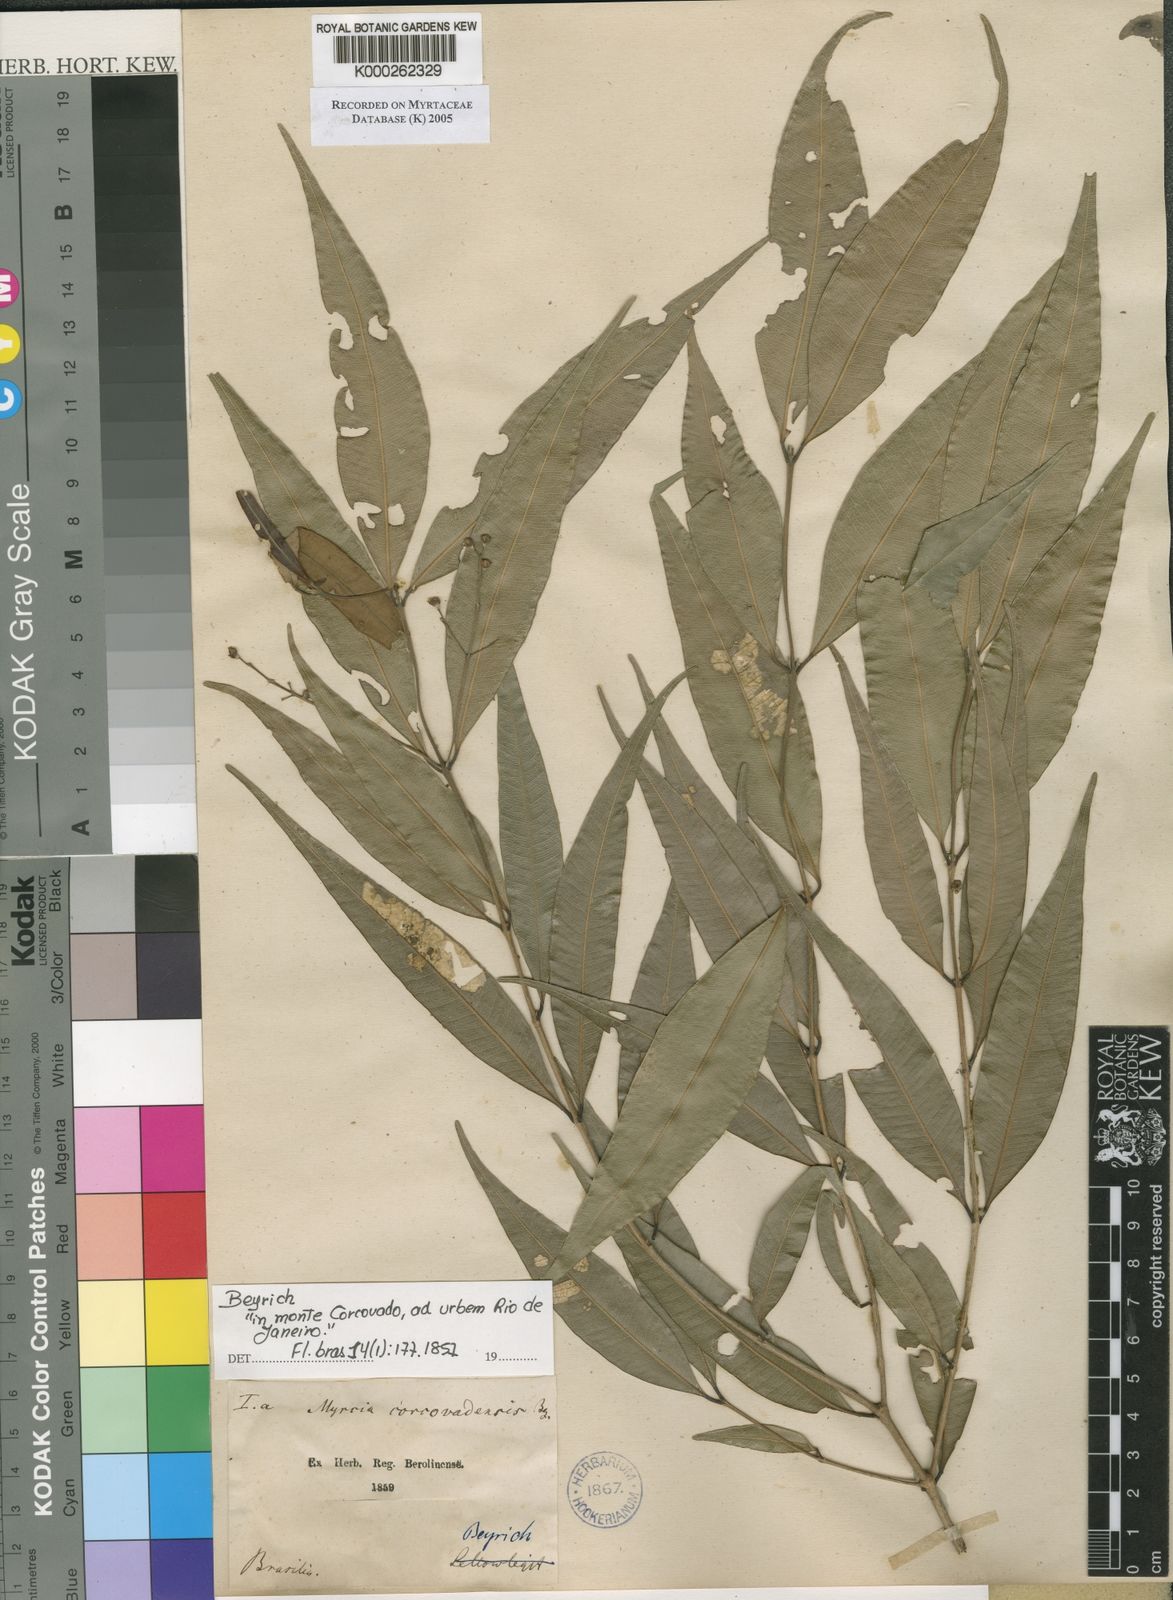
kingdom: Plantae
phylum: Tracheophyta
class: Magnoliopsida
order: Myrtales
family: Myrtaceae
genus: Myrcia
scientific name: Myrcia splendens
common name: Surinam cherry
